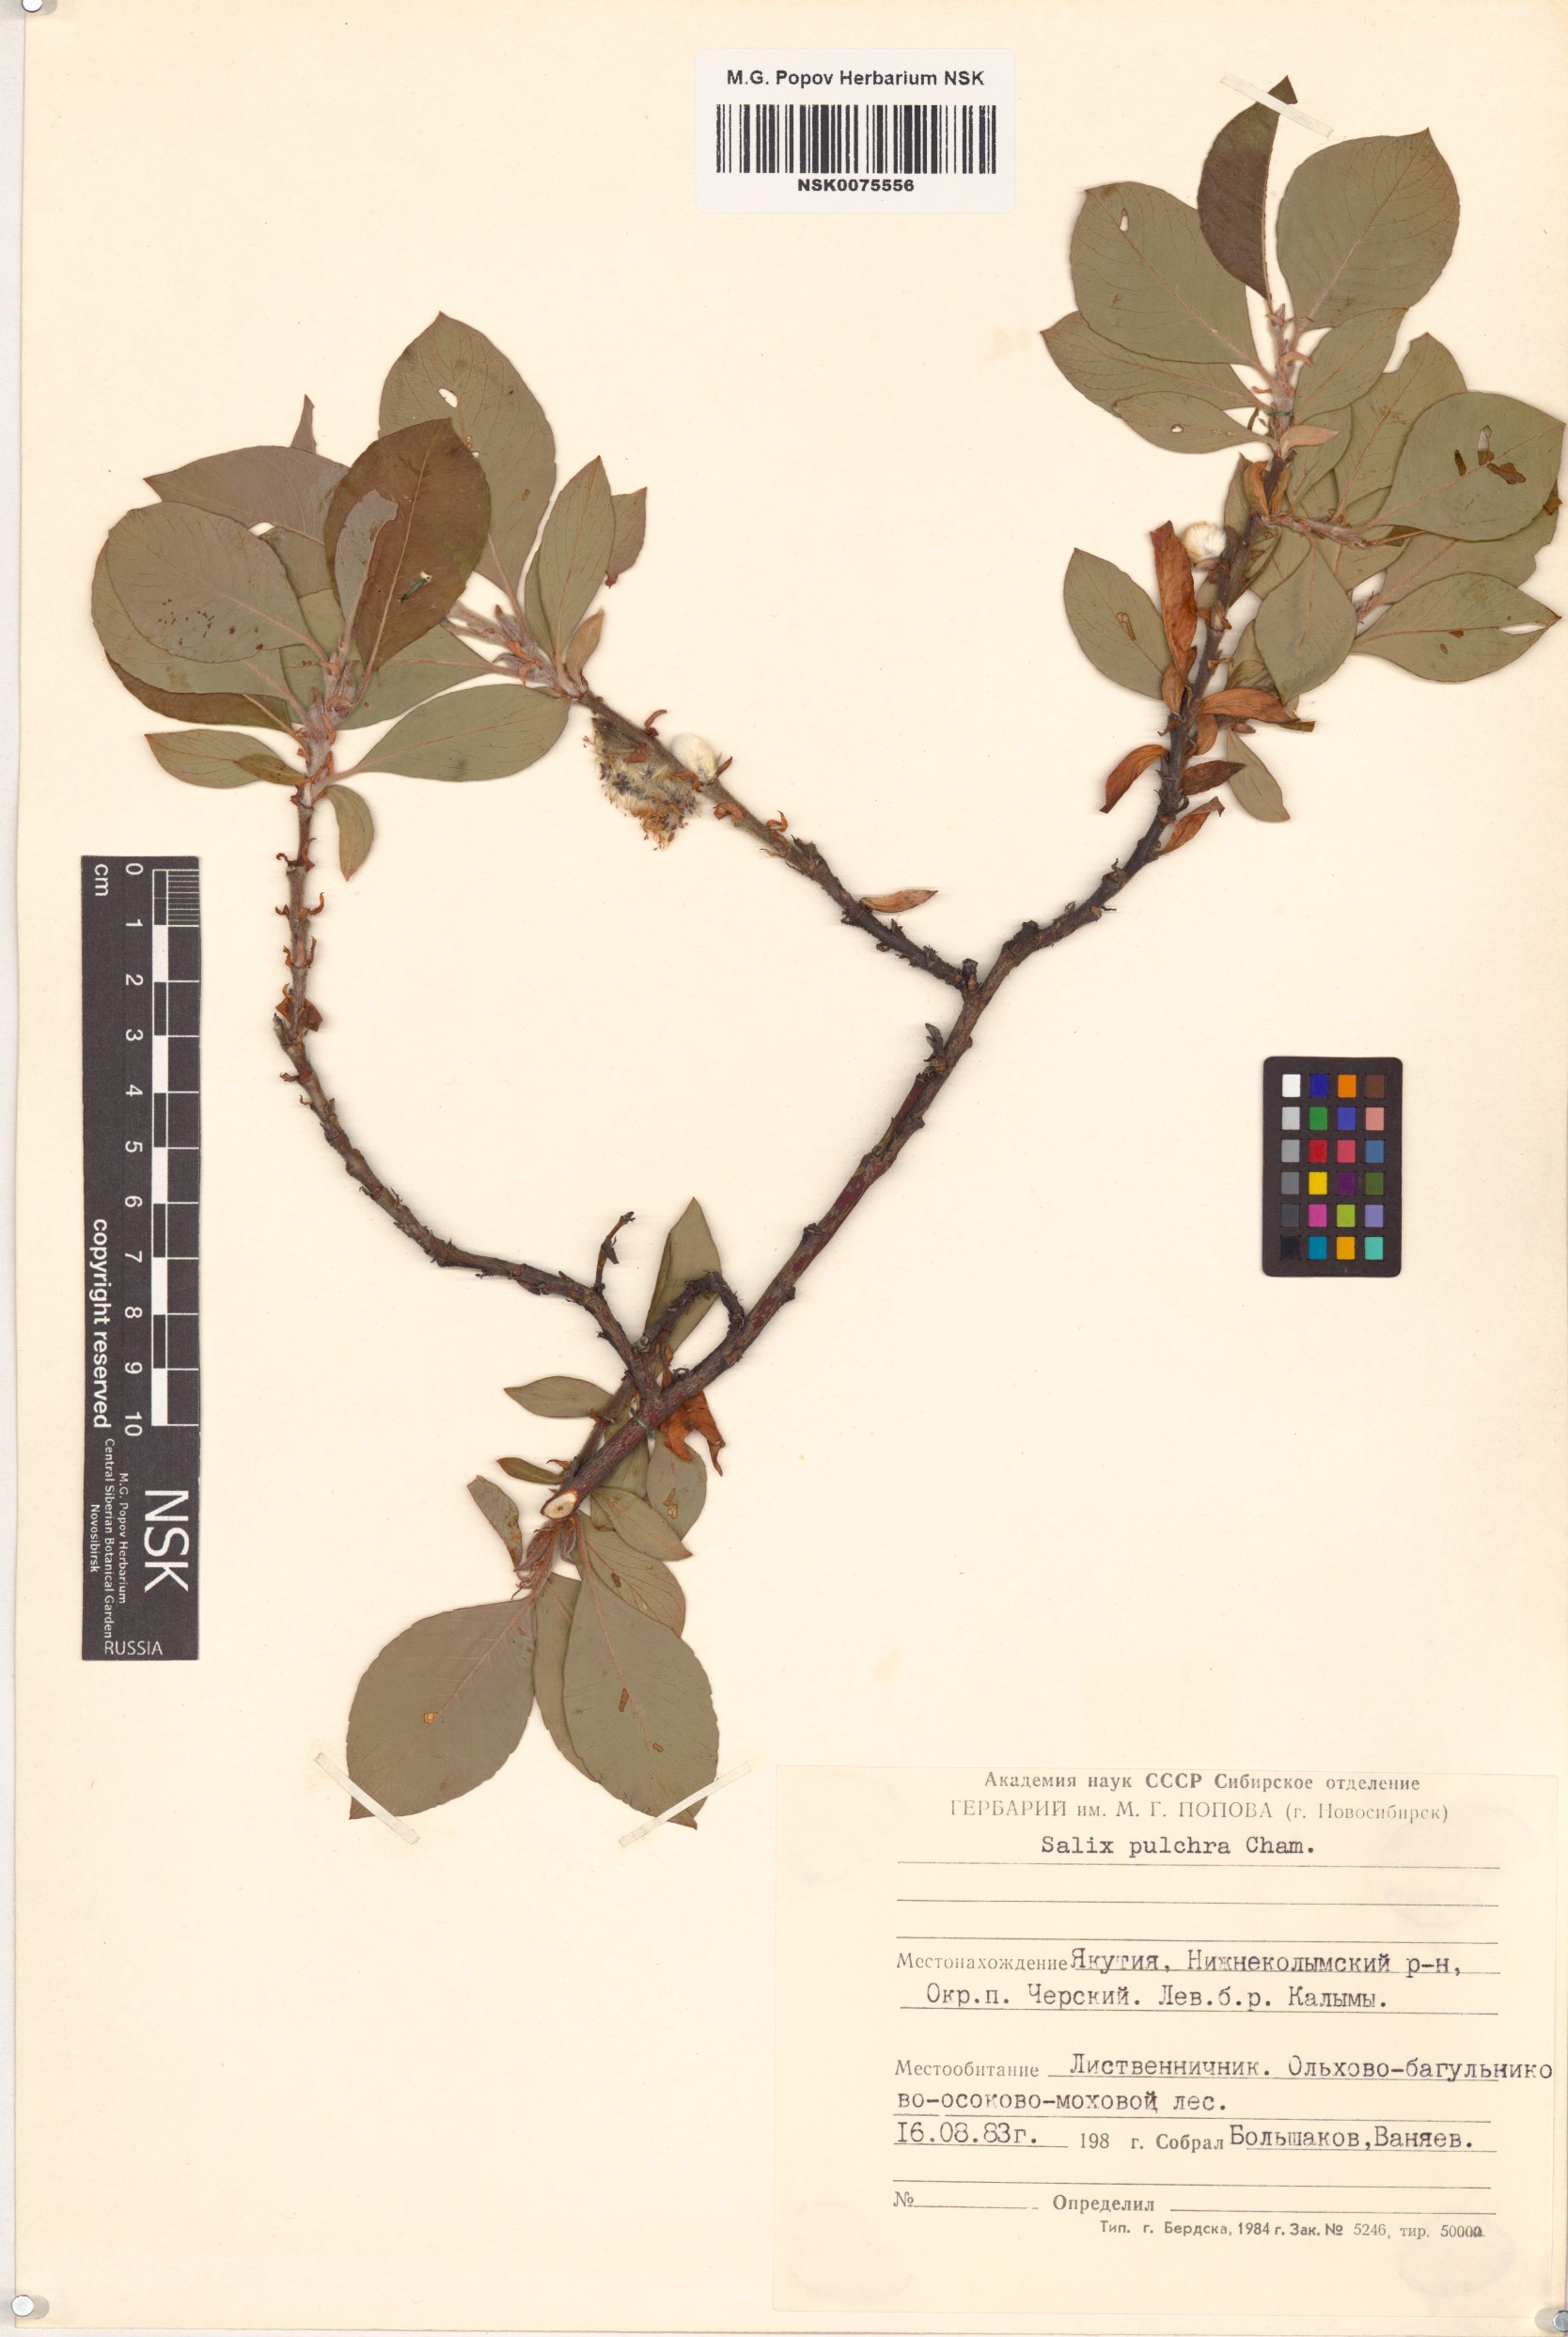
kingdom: Plantae
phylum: Tracheophyta
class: Magnoliopsida
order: Malpighiales
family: Salicaceae
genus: Salix
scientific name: Salix pulchra
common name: Diamond-leaved willow
